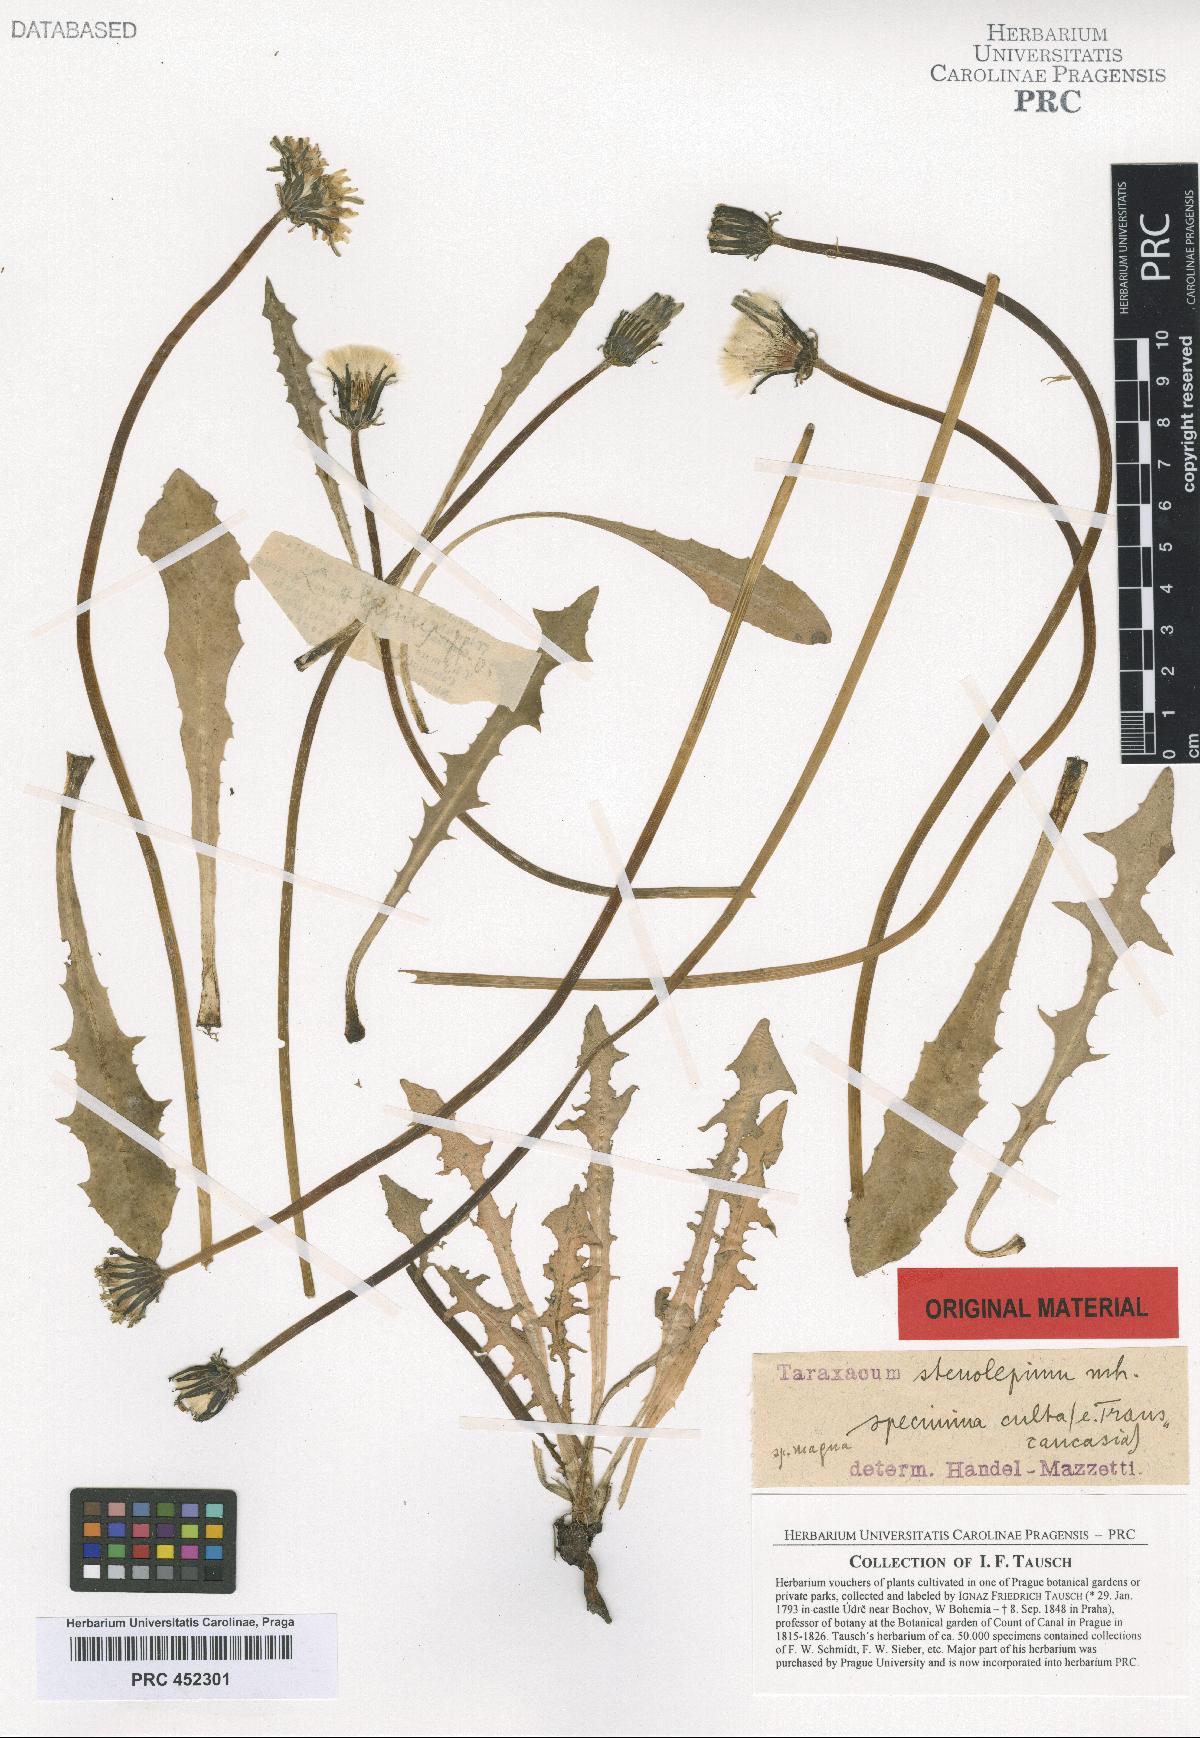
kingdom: Plantae
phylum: Tracheophyta
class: Magnoliopsida
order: Asterales
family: Asteraceae
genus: Taraxacum
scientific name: Taraxacum stenolepium
